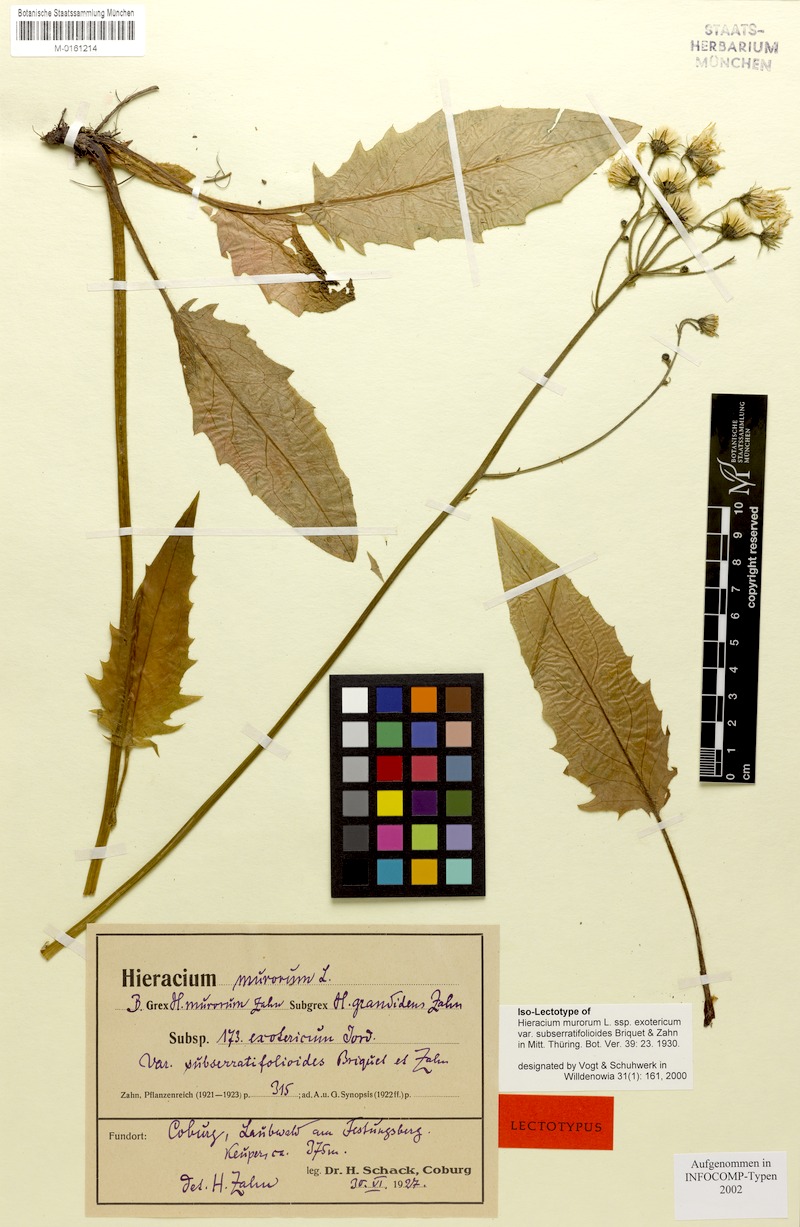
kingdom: Plantae
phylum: Tracheophyta
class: Magnoliopsida
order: Asterales
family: Asteraceae
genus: Hieracium
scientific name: Hieracium murorum
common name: Wall hawkweed
